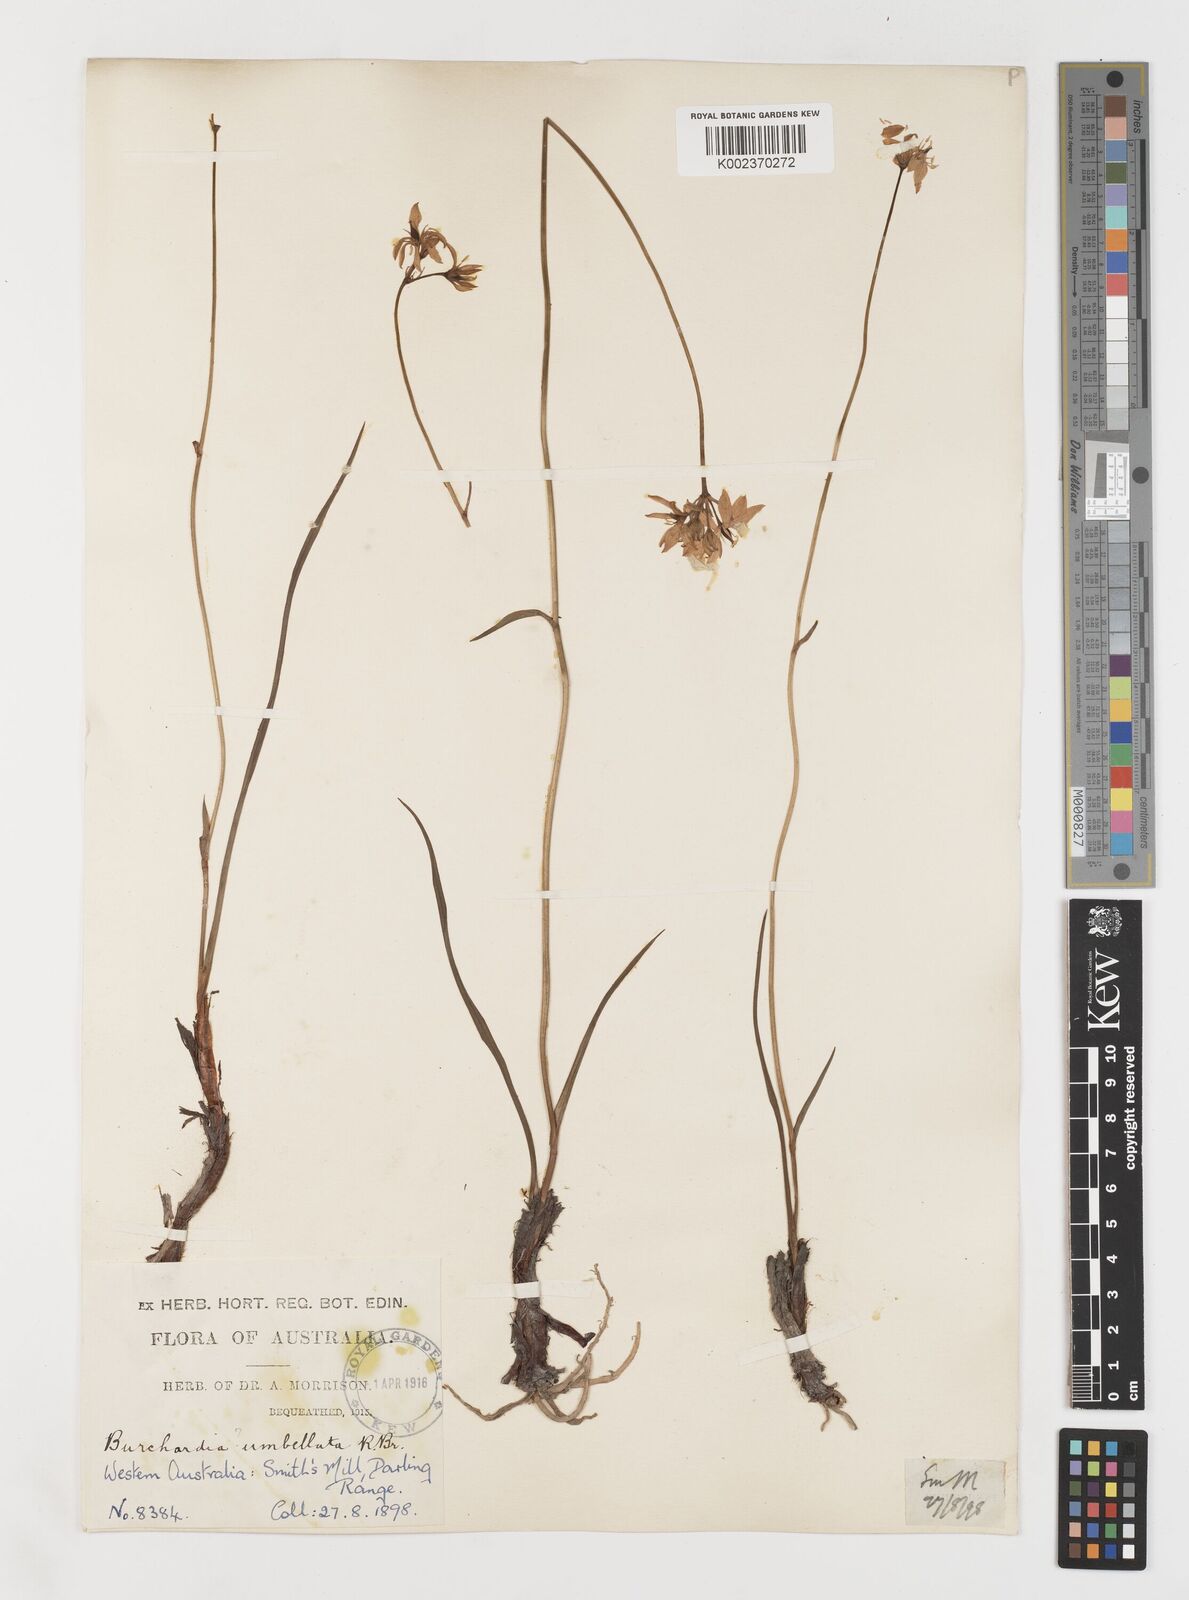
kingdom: Plantae
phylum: Tracheophyta
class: Liliopsida
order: Liliales
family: Colchicaceae
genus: Burchardia
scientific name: Burchardia umbellata
